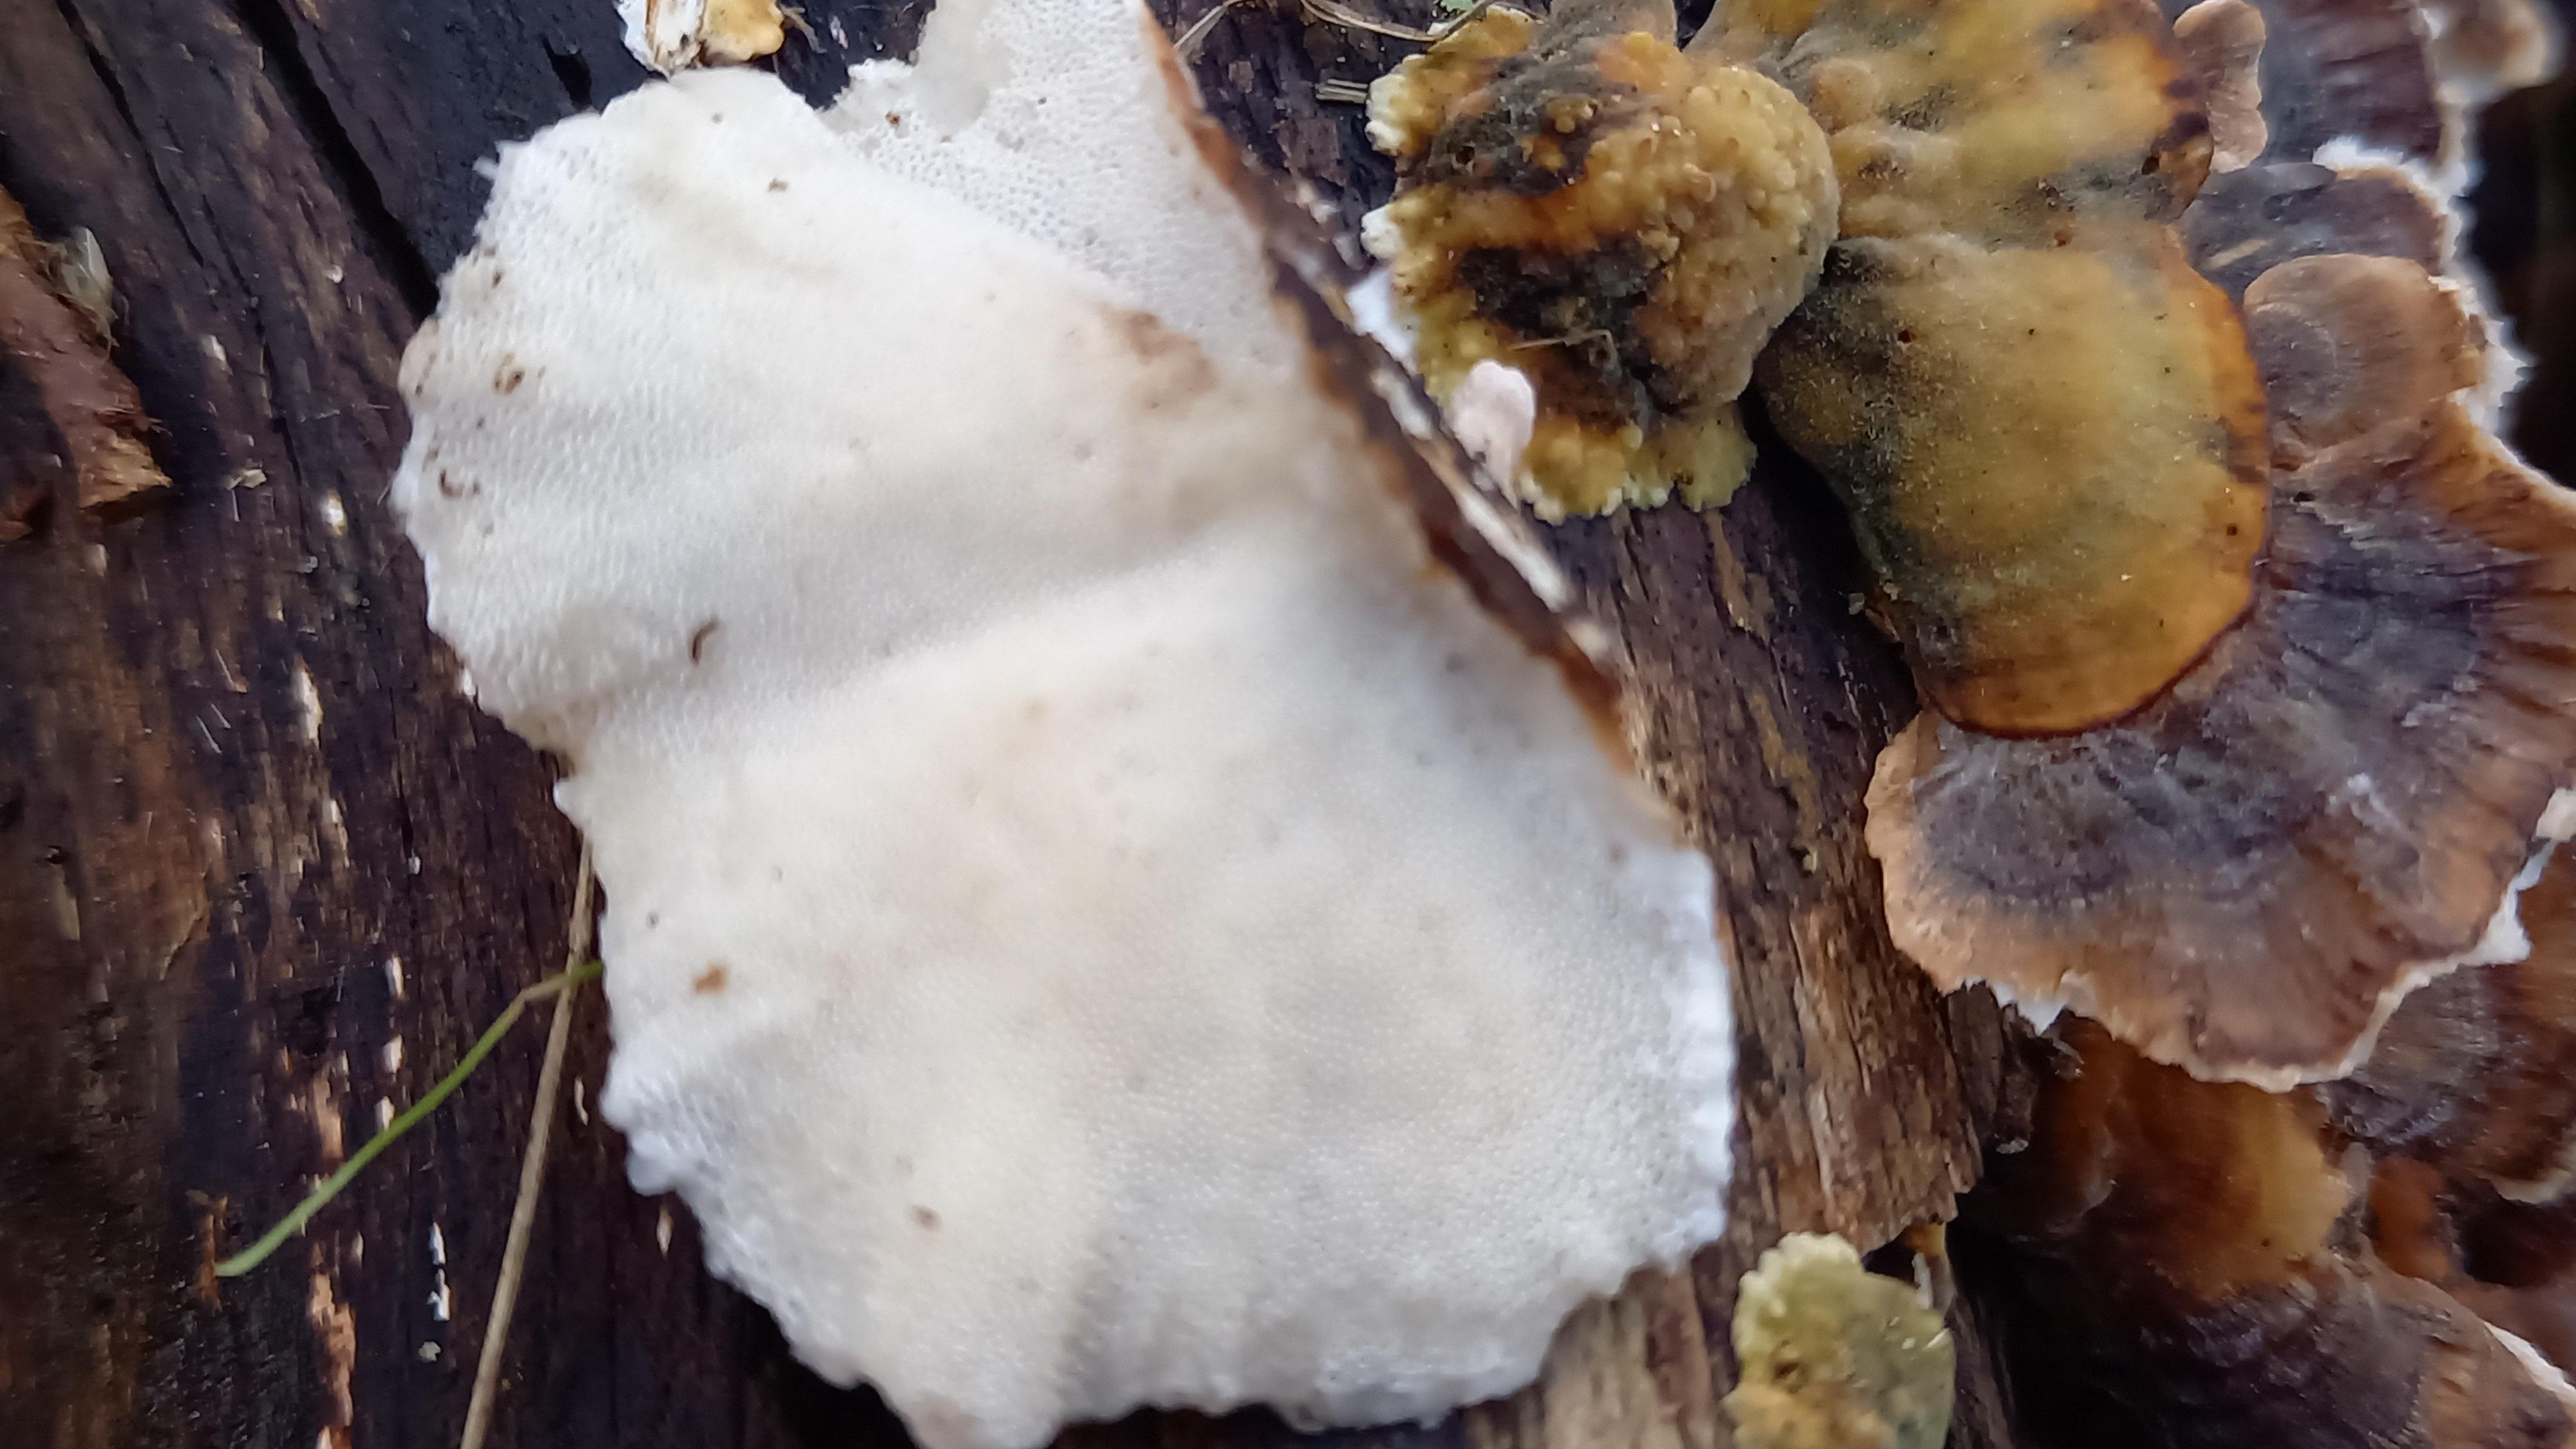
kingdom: Fungi
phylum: Basidiomycota
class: Agaricomycetes
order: Polyporales
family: Polyporaceae
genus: Trametes
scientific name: Trametes versicolor
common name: broget læderporesvamp
